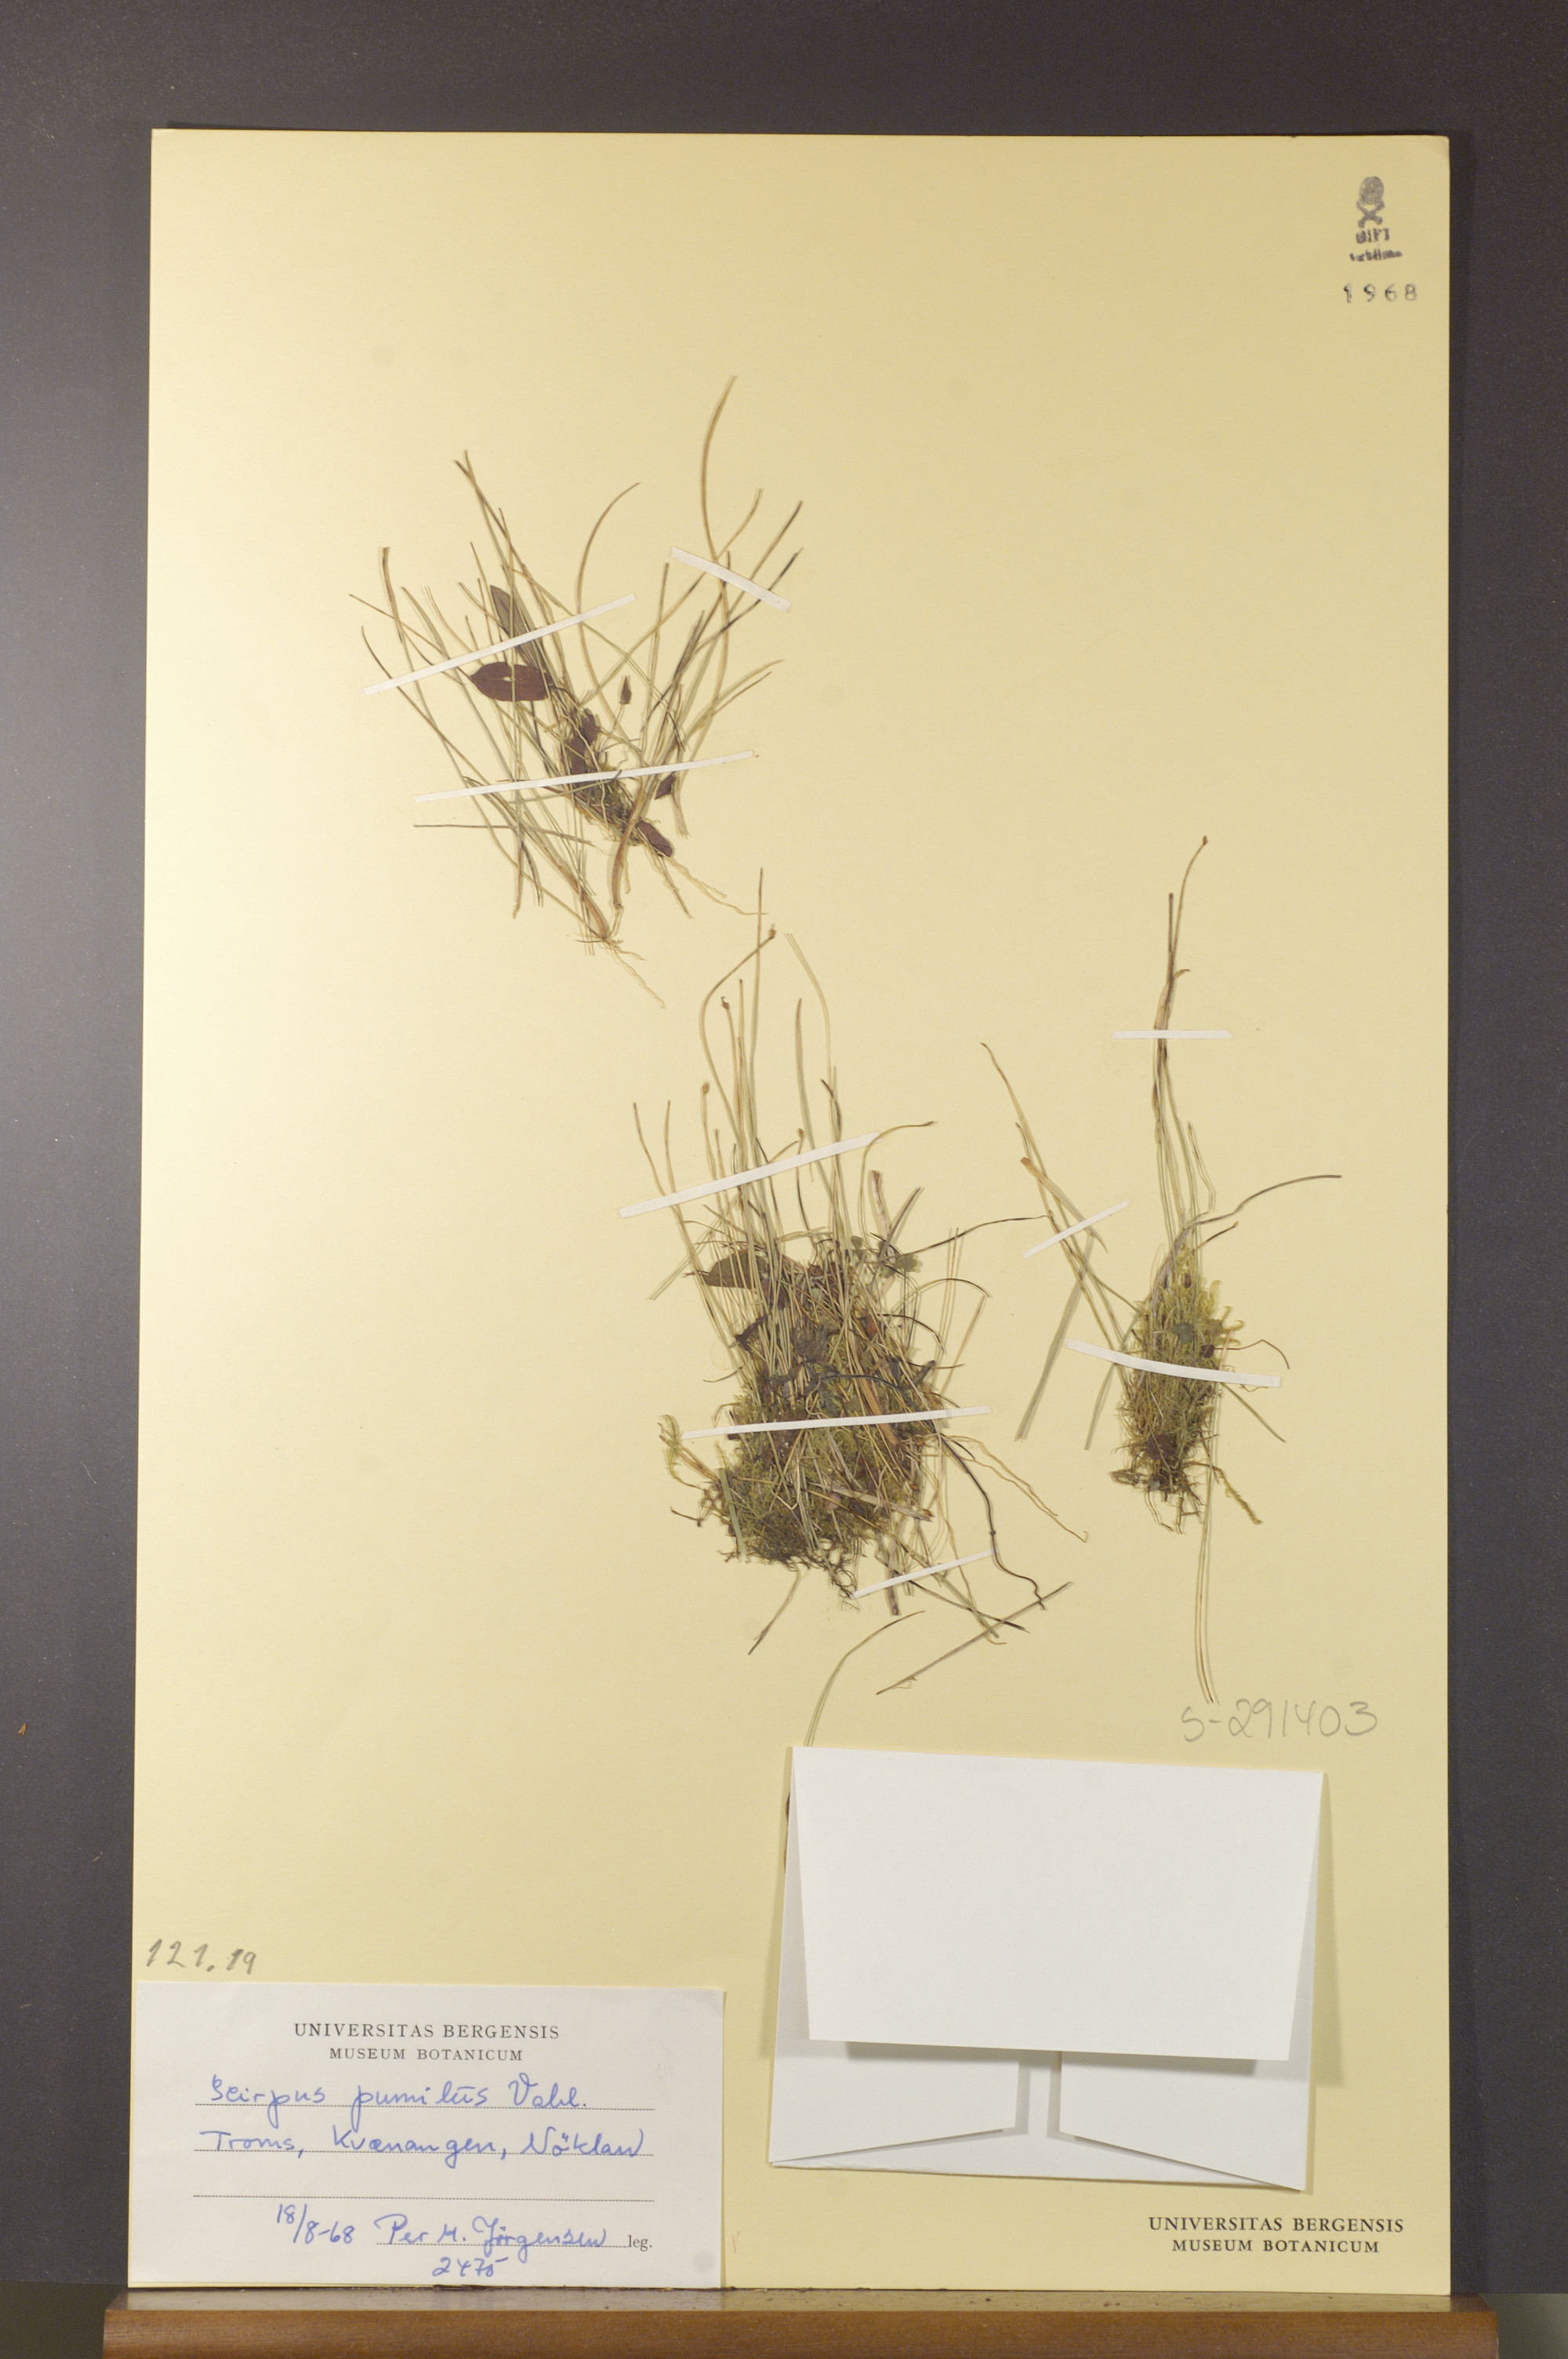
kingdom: Plantae
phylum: Tracheophyta
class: Liliopsida
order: Poales
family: Cyperaceae
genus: Trichophorum
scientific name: Trichophorum pumilum
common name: Rolland's bulrush
